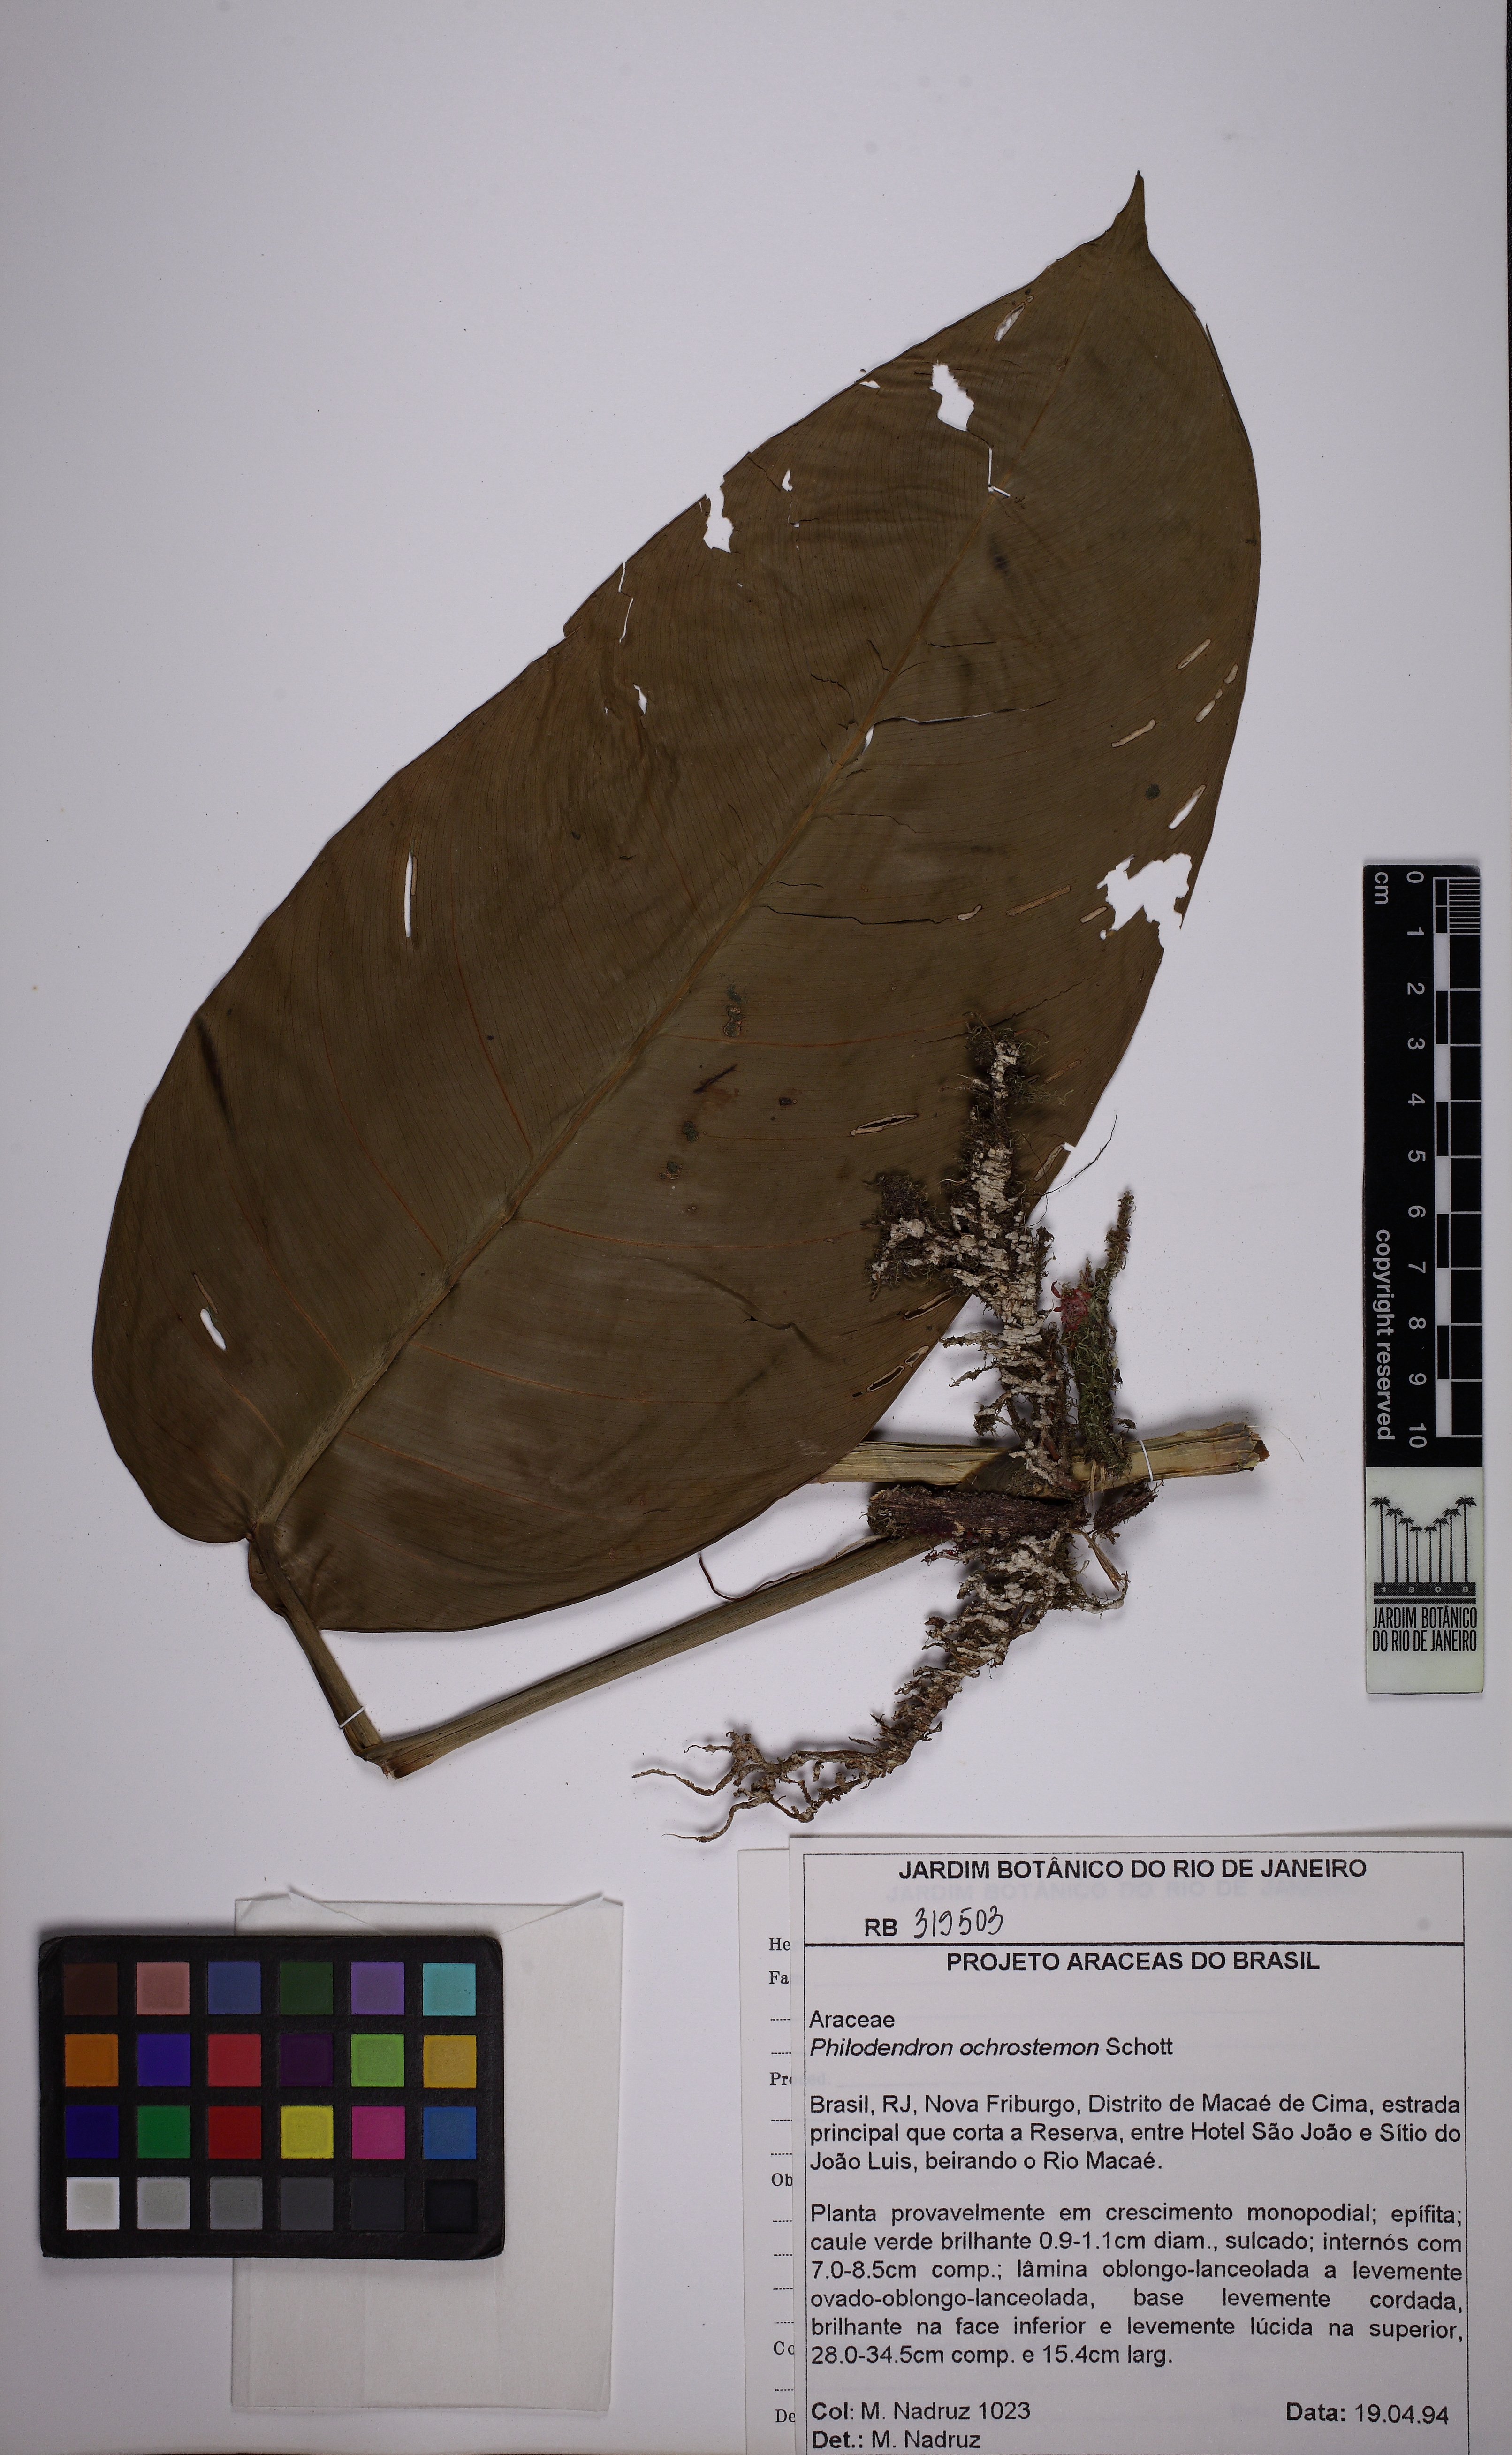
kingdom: Plantae
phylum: Tracheophyta
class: Liliopsida
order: Alismatales
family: Araceae
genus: Philodendron
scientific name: Philodendron oblongum
